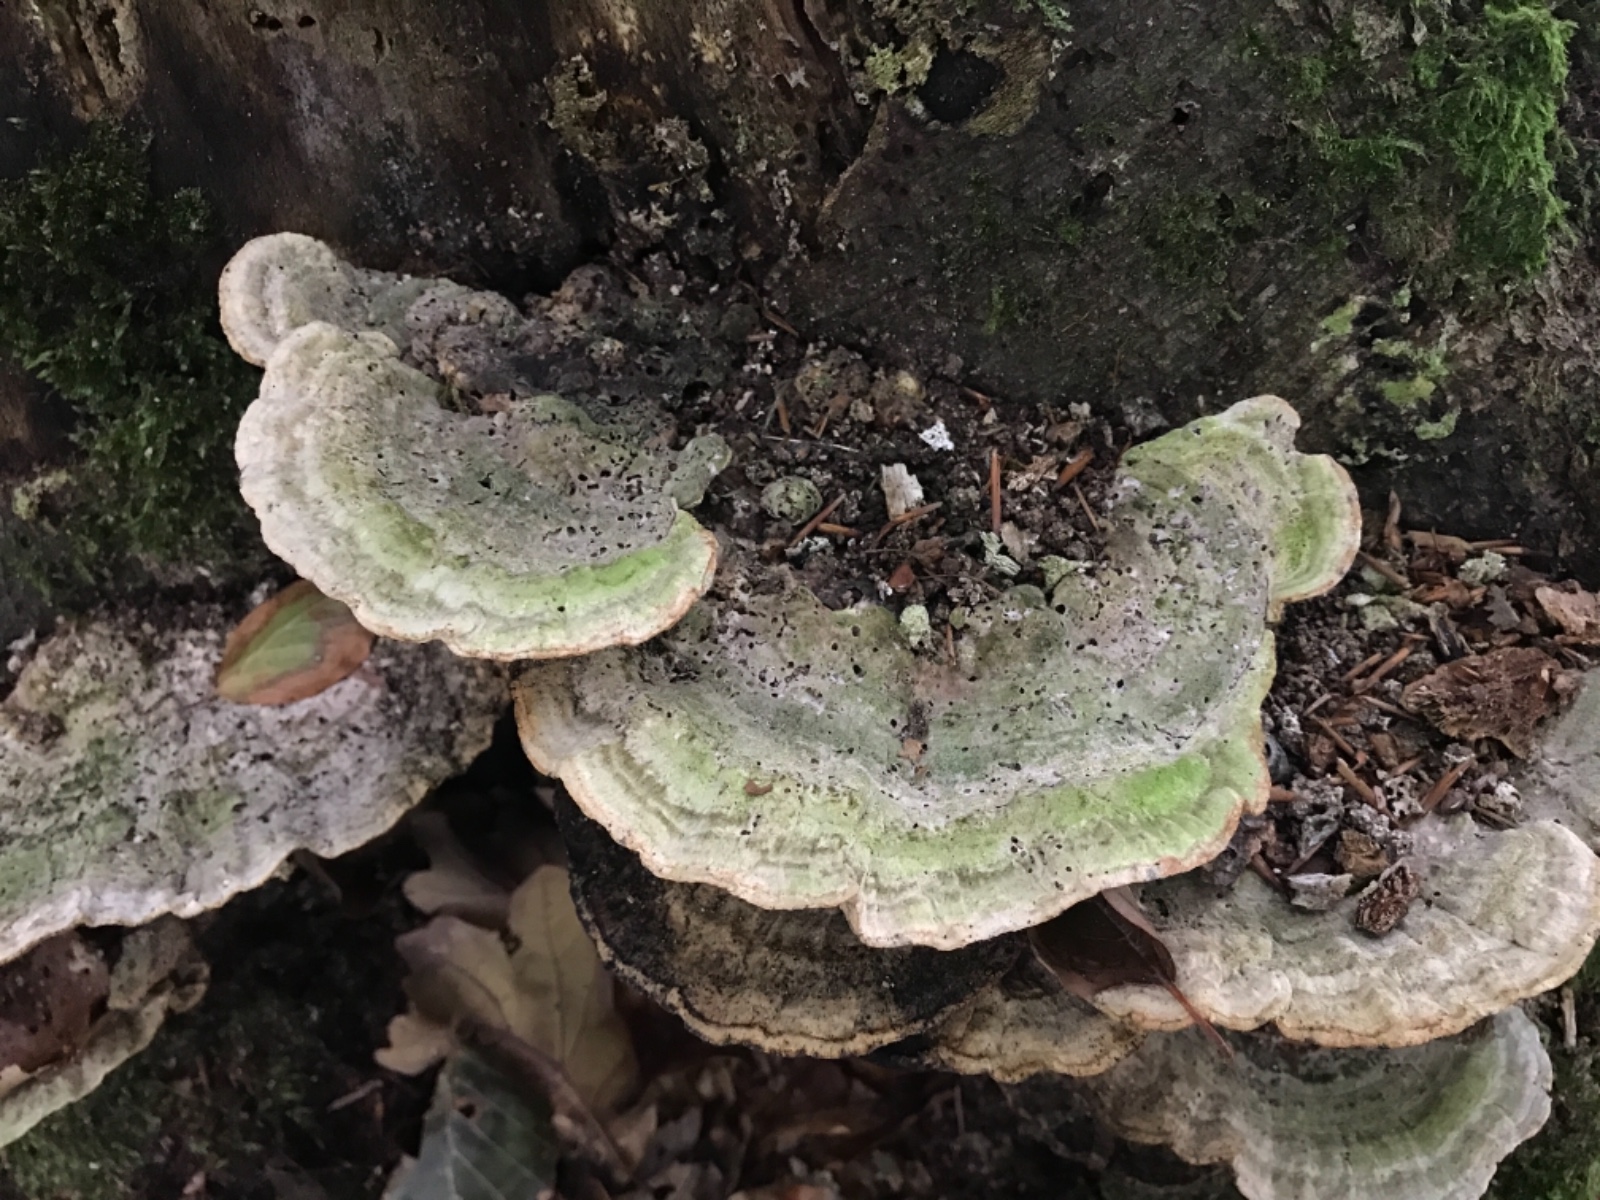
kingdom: Fungi
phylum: Basidiomycota
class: Agaricomycetes
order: Polyporales
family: Polyporaceae
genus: Trametes
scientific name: Trametes gibbosa
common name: puklet læderporesvamp
